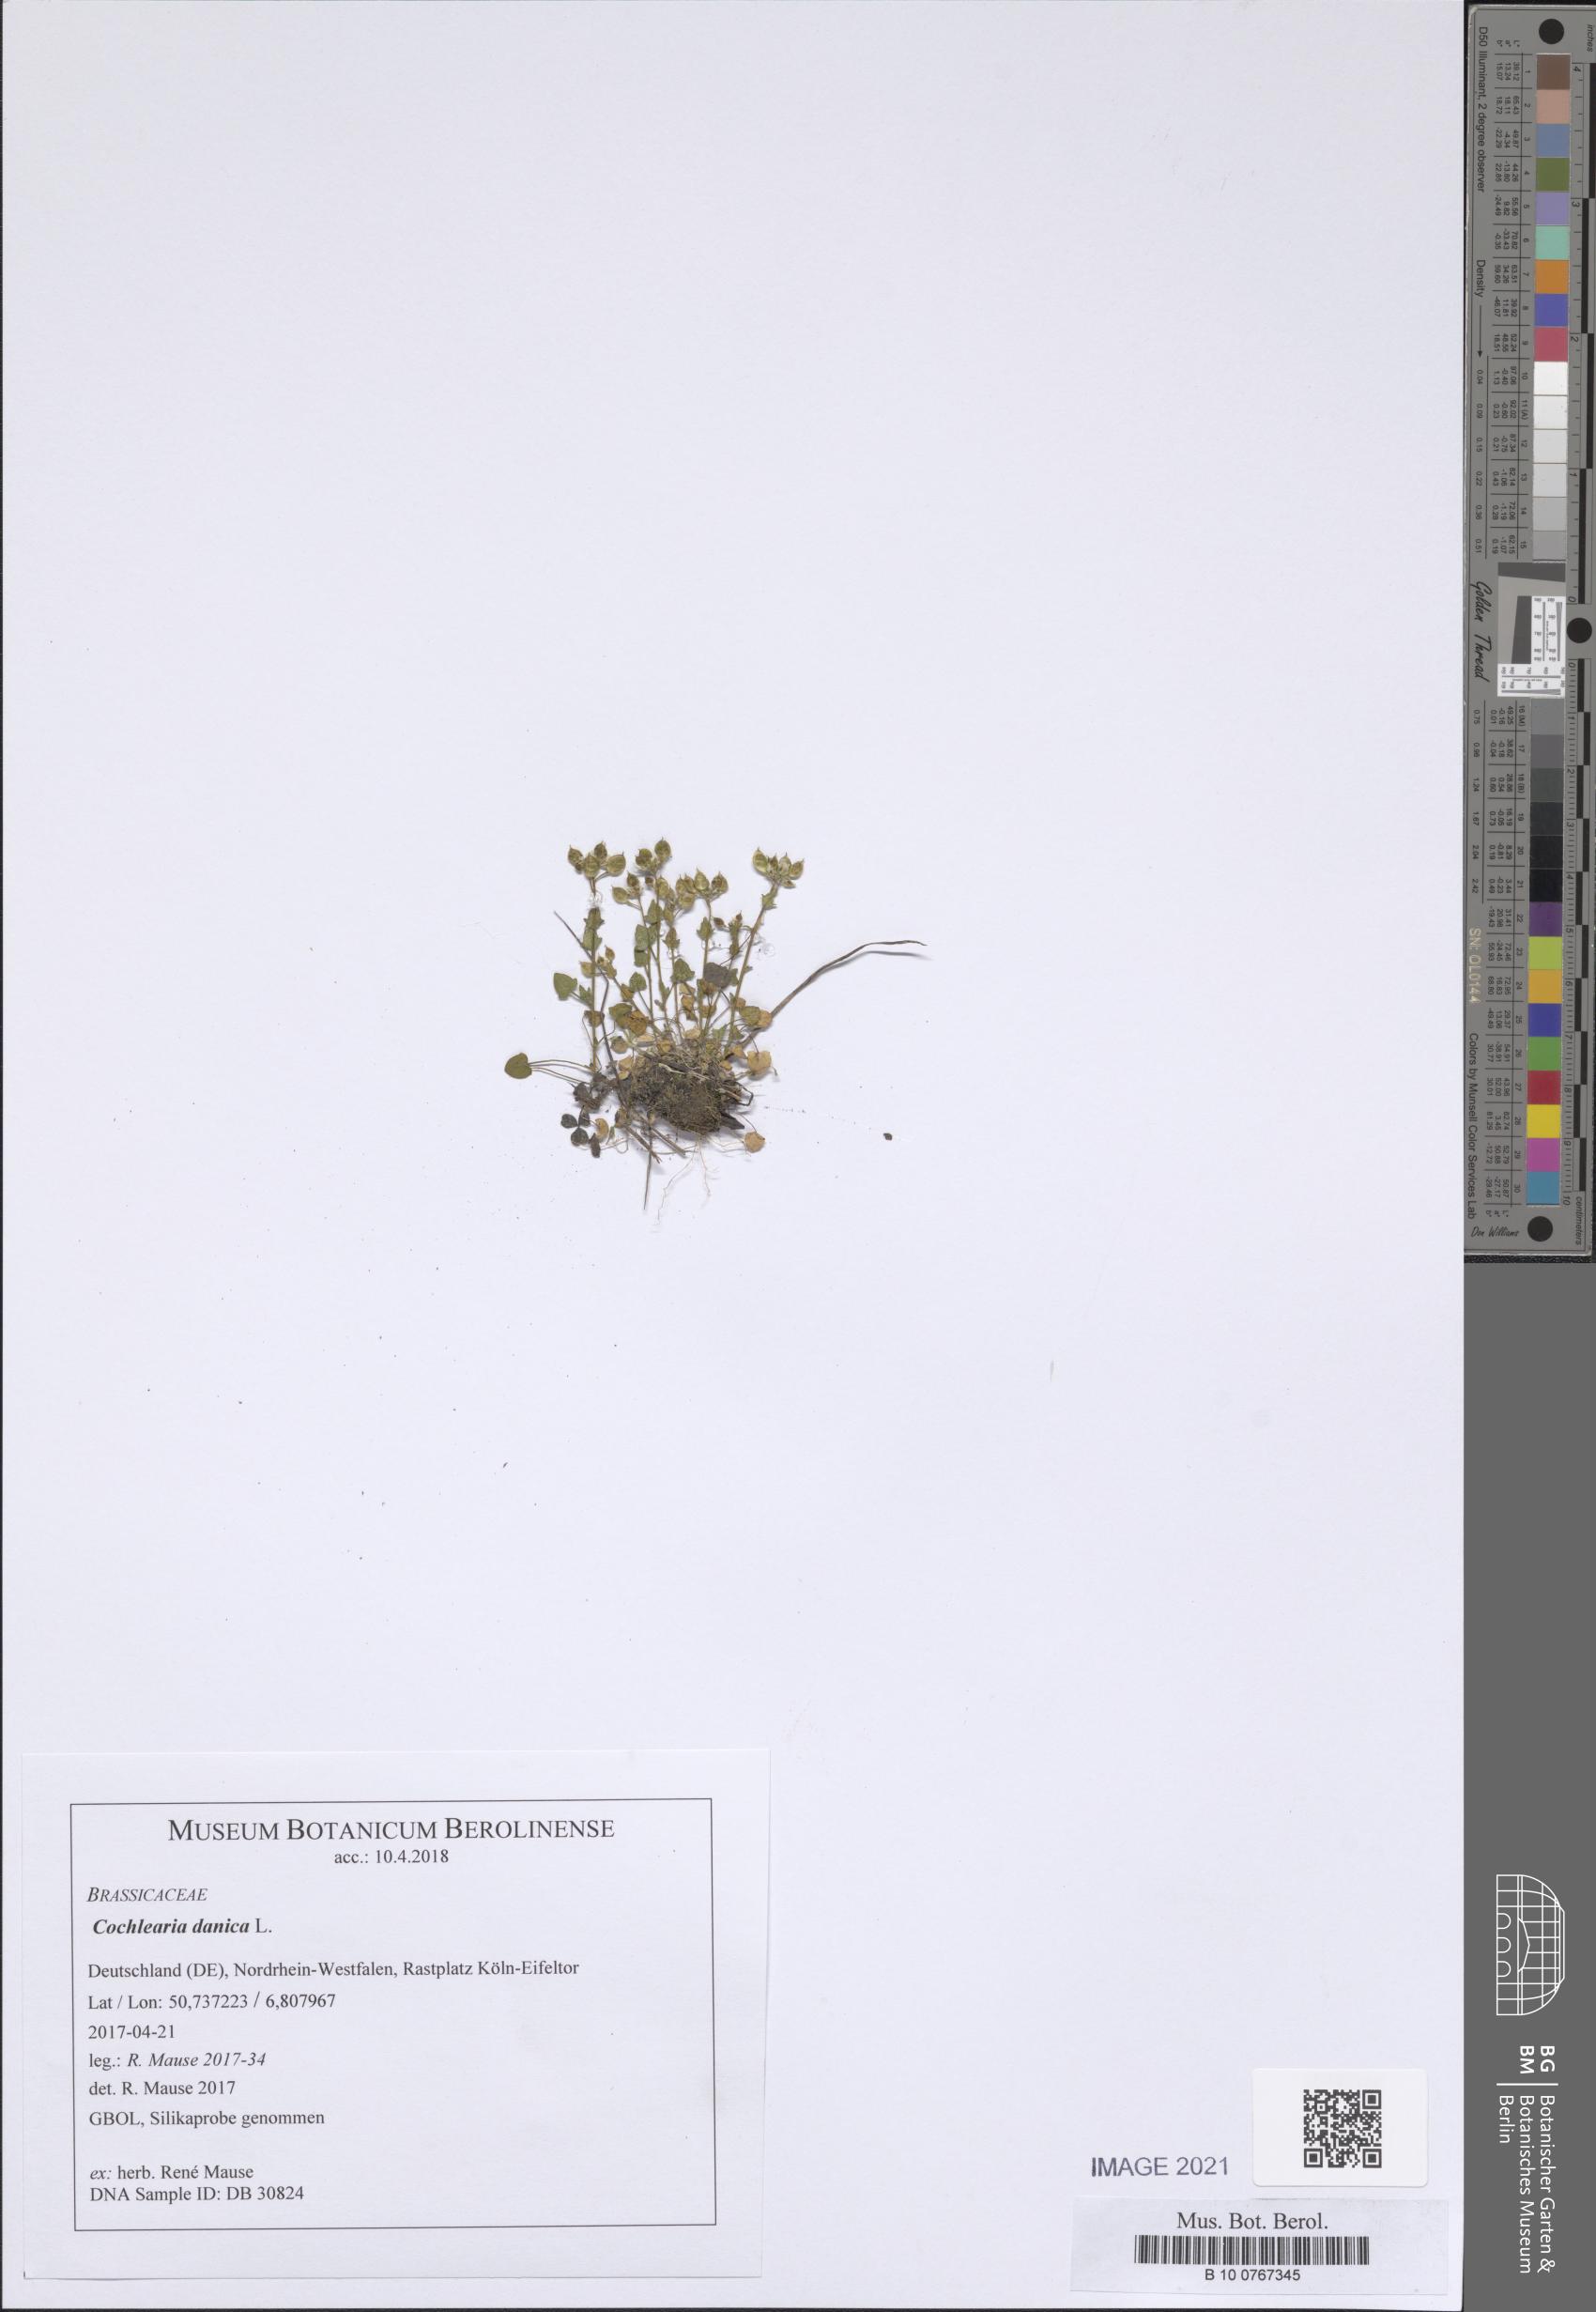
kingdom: Plantae
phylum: Tracheophyta
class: Magnoliopsida
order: Brassicales
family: Brassicaceae
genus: Cochlearia
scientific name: Cochlearia danica
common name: Early scurvygrass
